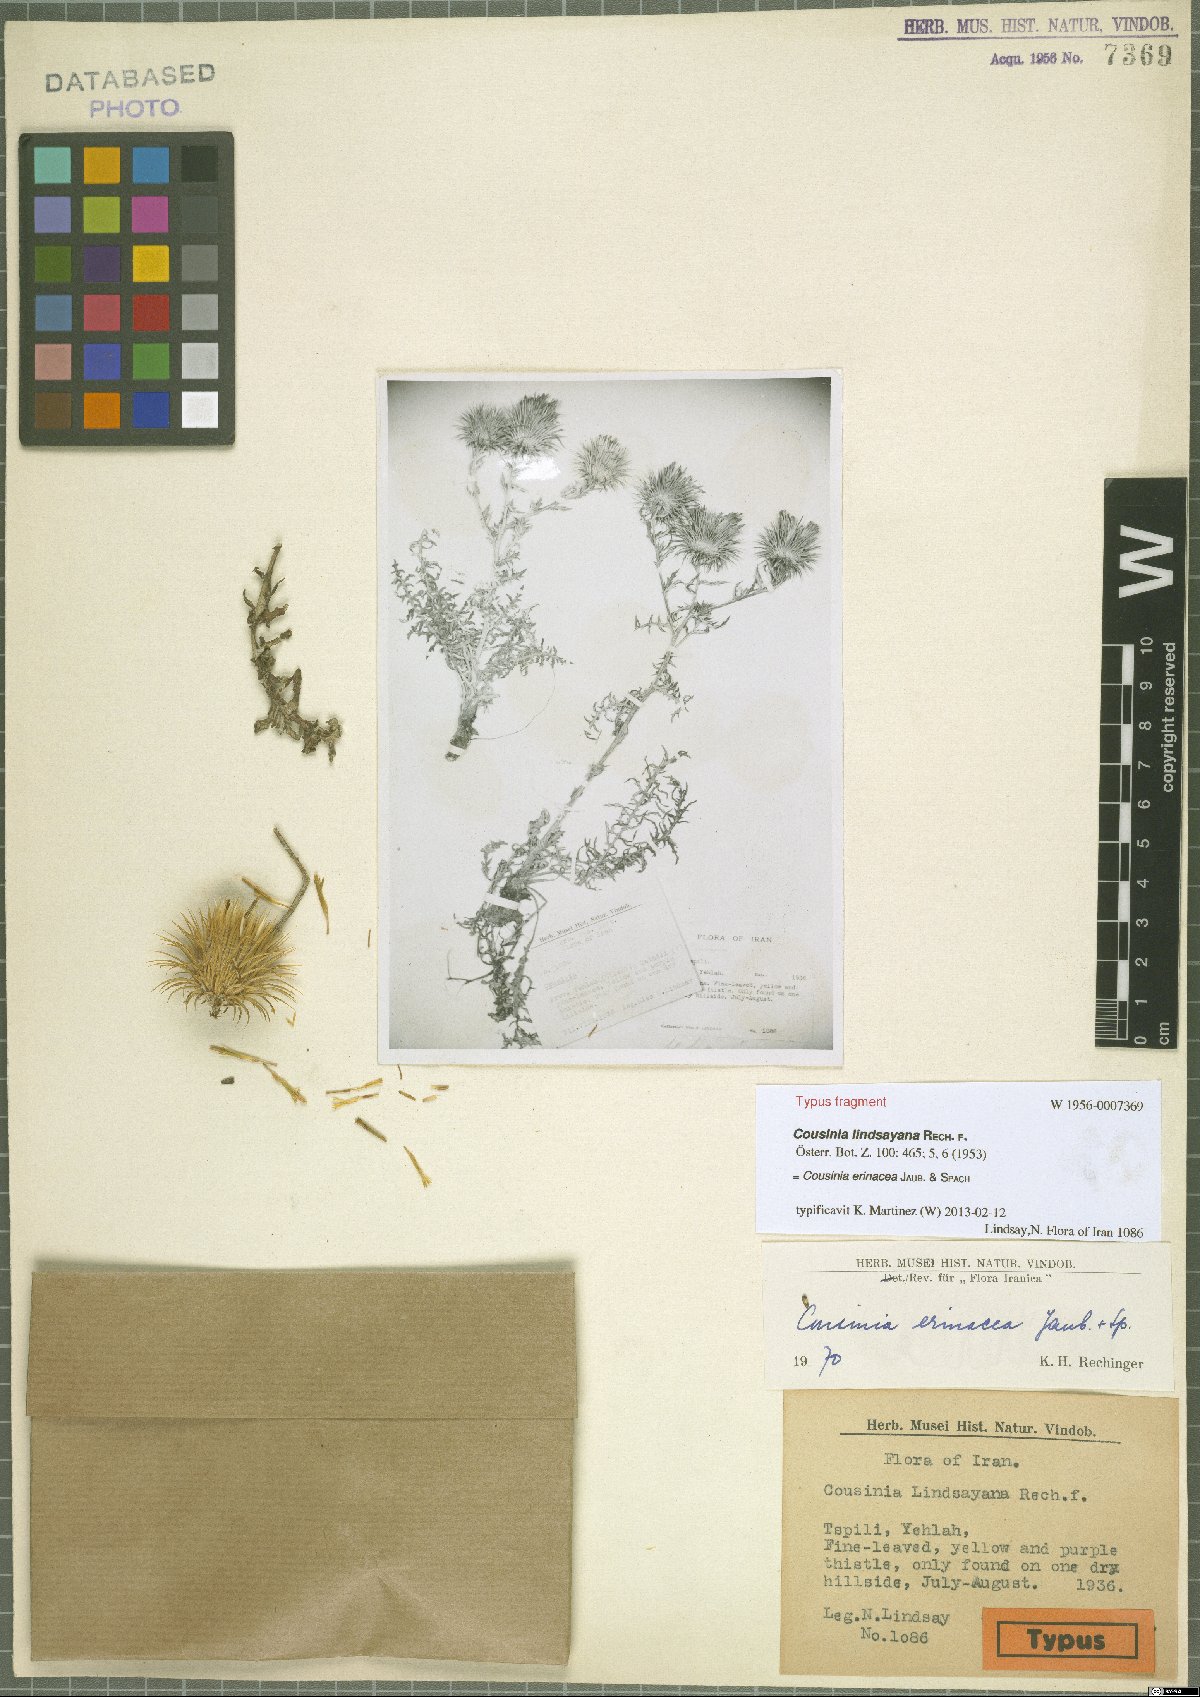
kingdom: Plantae
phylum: Tracheophyta
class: Magnoliopsida
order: Asterales
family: Asteraceae
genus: Cousinia
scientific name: Cousinia erinacea
